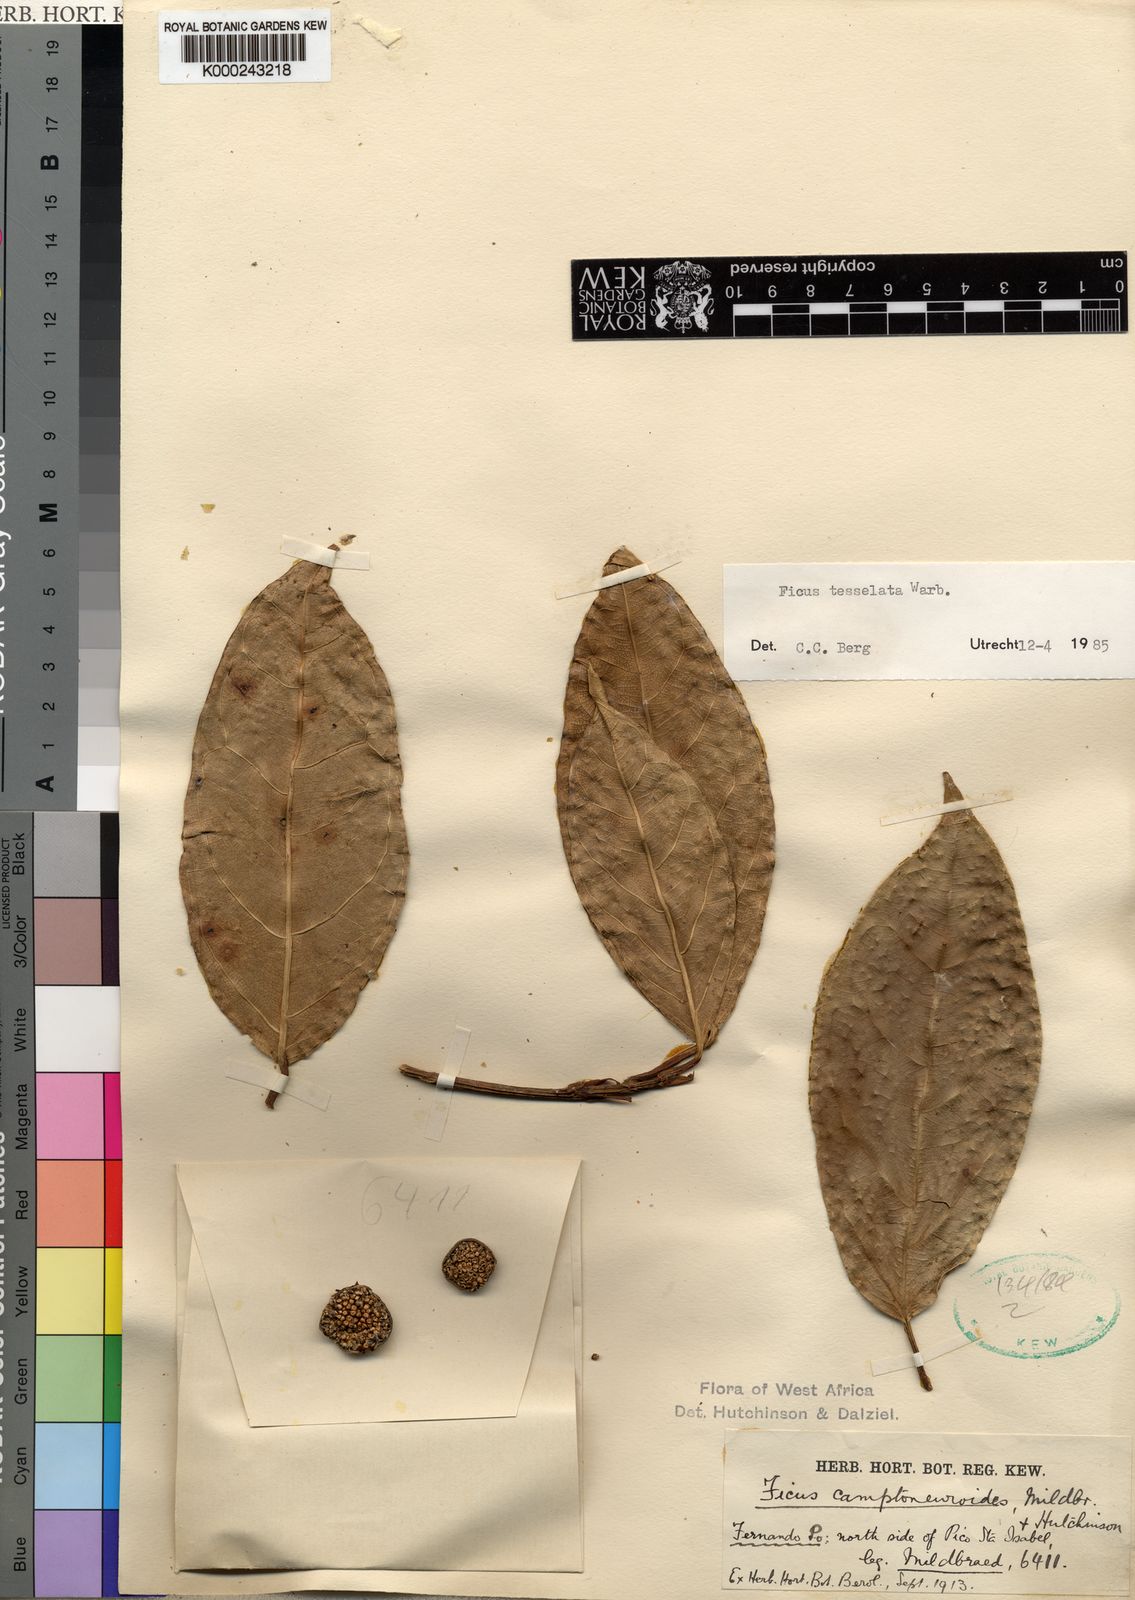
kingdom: Plantae
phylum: Tracheophyta
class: Magnoliopsida
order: Rosales
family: Moraceae
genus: Ficus
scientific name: Ficus tesselata
